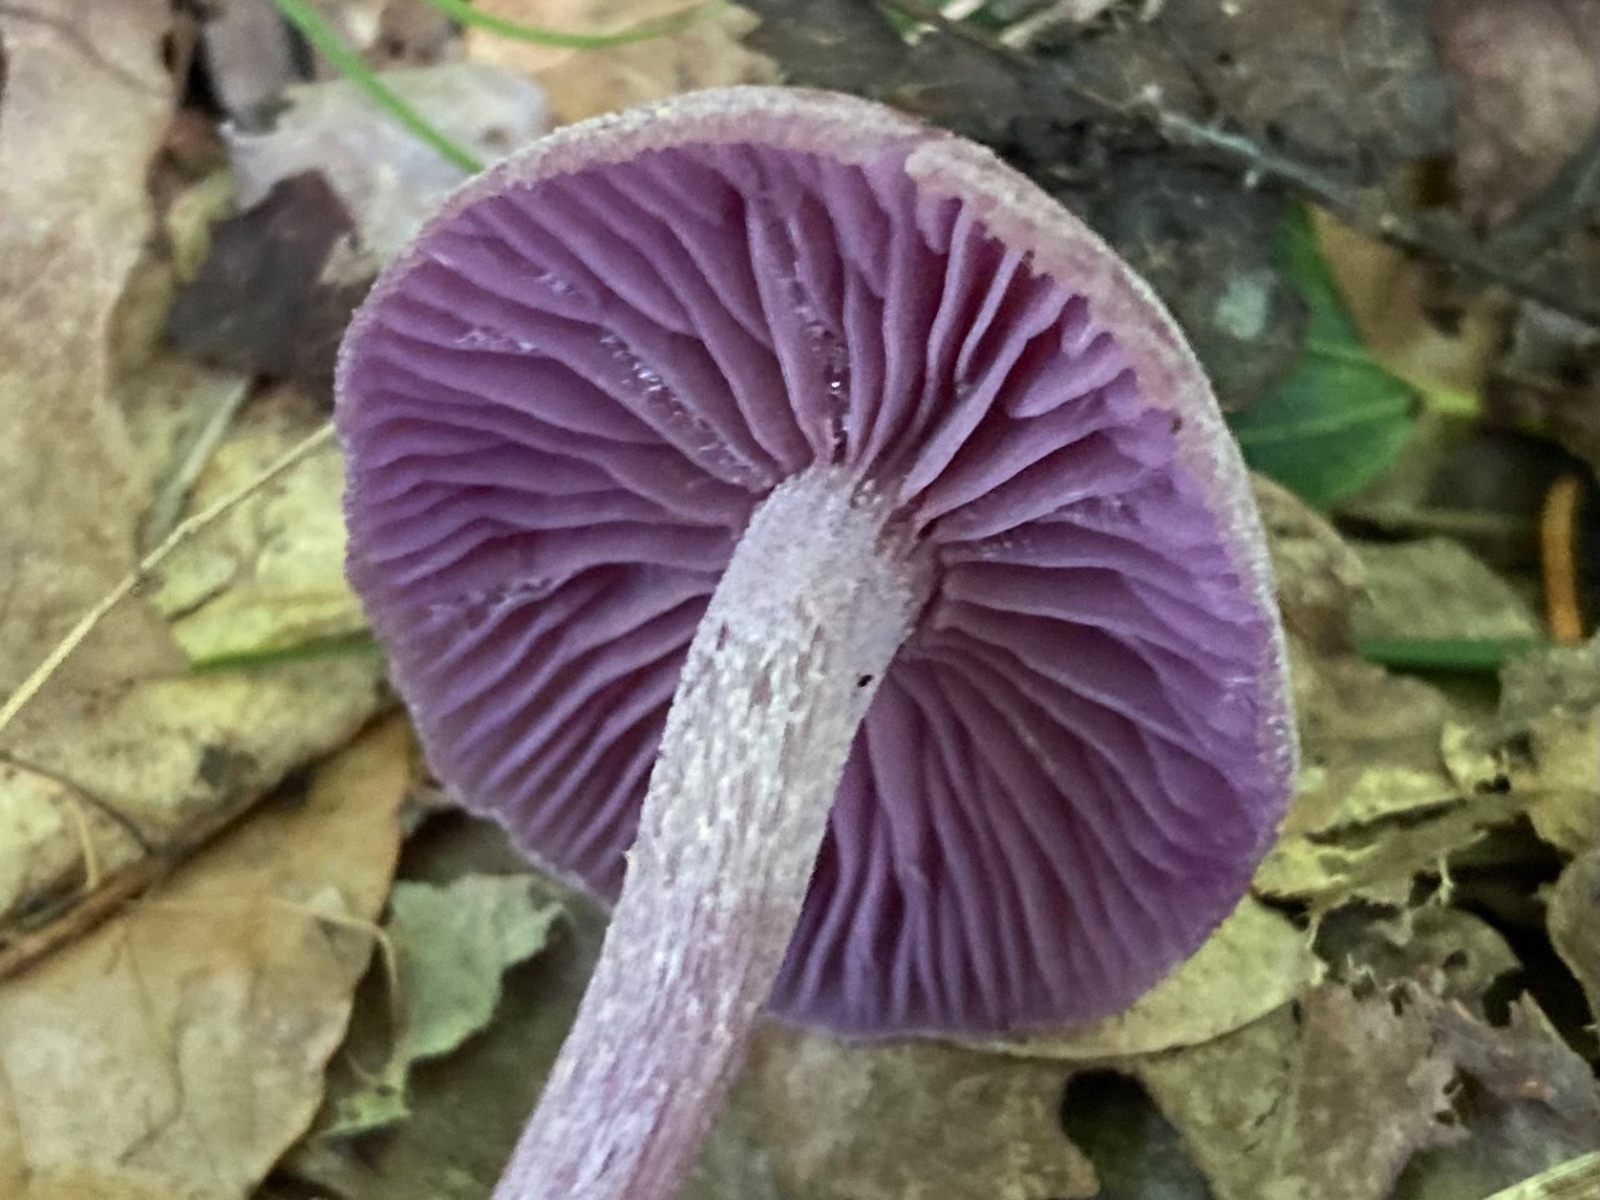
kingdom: Fungi
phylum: Basidiomycota
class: Agaricomycetes
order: Agaricales
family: Hydnangiaceae
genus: Laccaria
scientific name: Laccaria amethystina
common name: violet ametysthat
